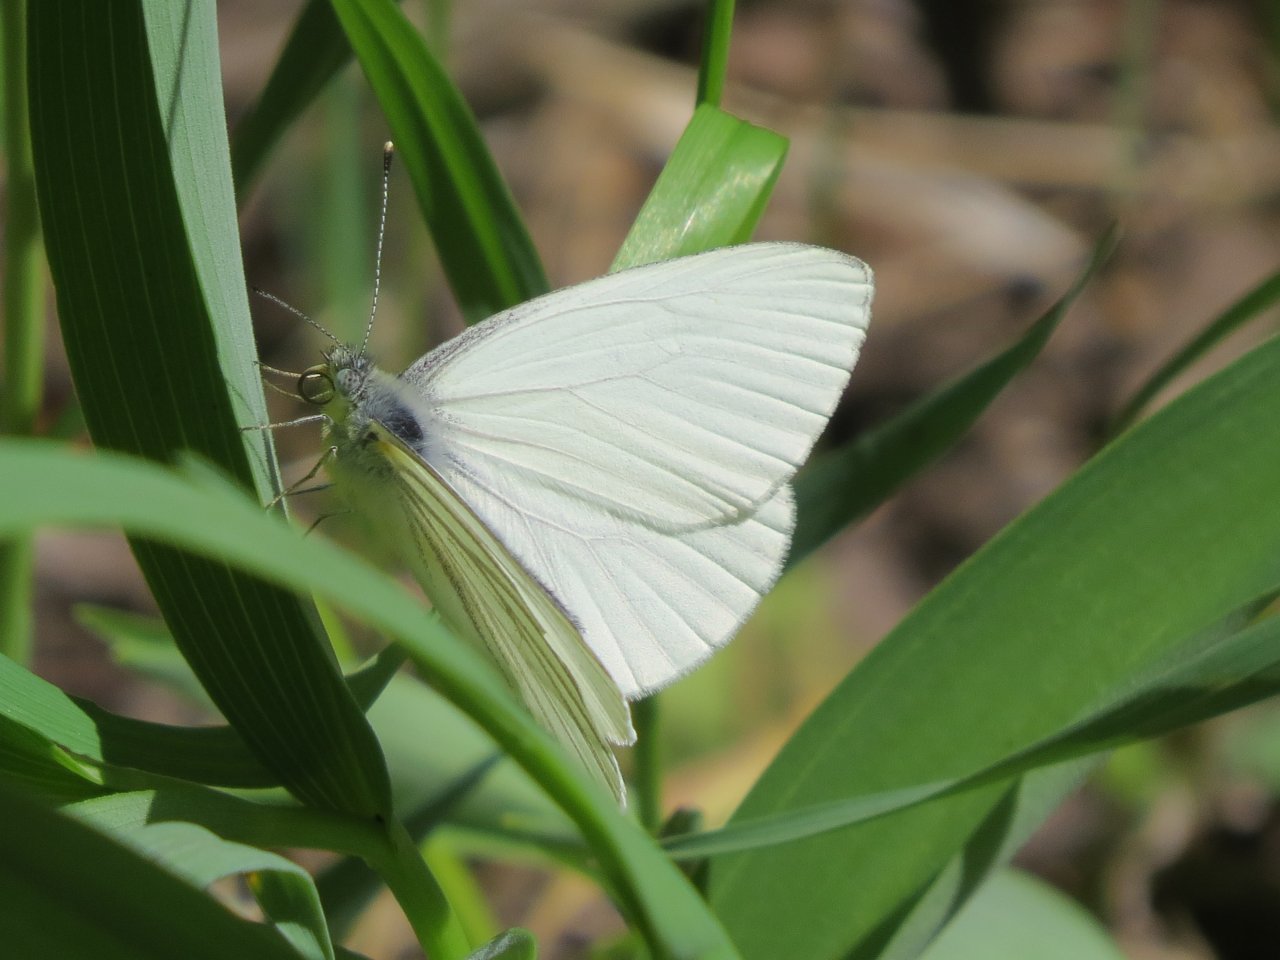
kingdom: Animalia
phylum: Arthropoda
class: Insecta
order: Lepidoptera
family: Pieridae
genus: Pieris
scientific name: Pieris oleracea
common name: Mustard White
